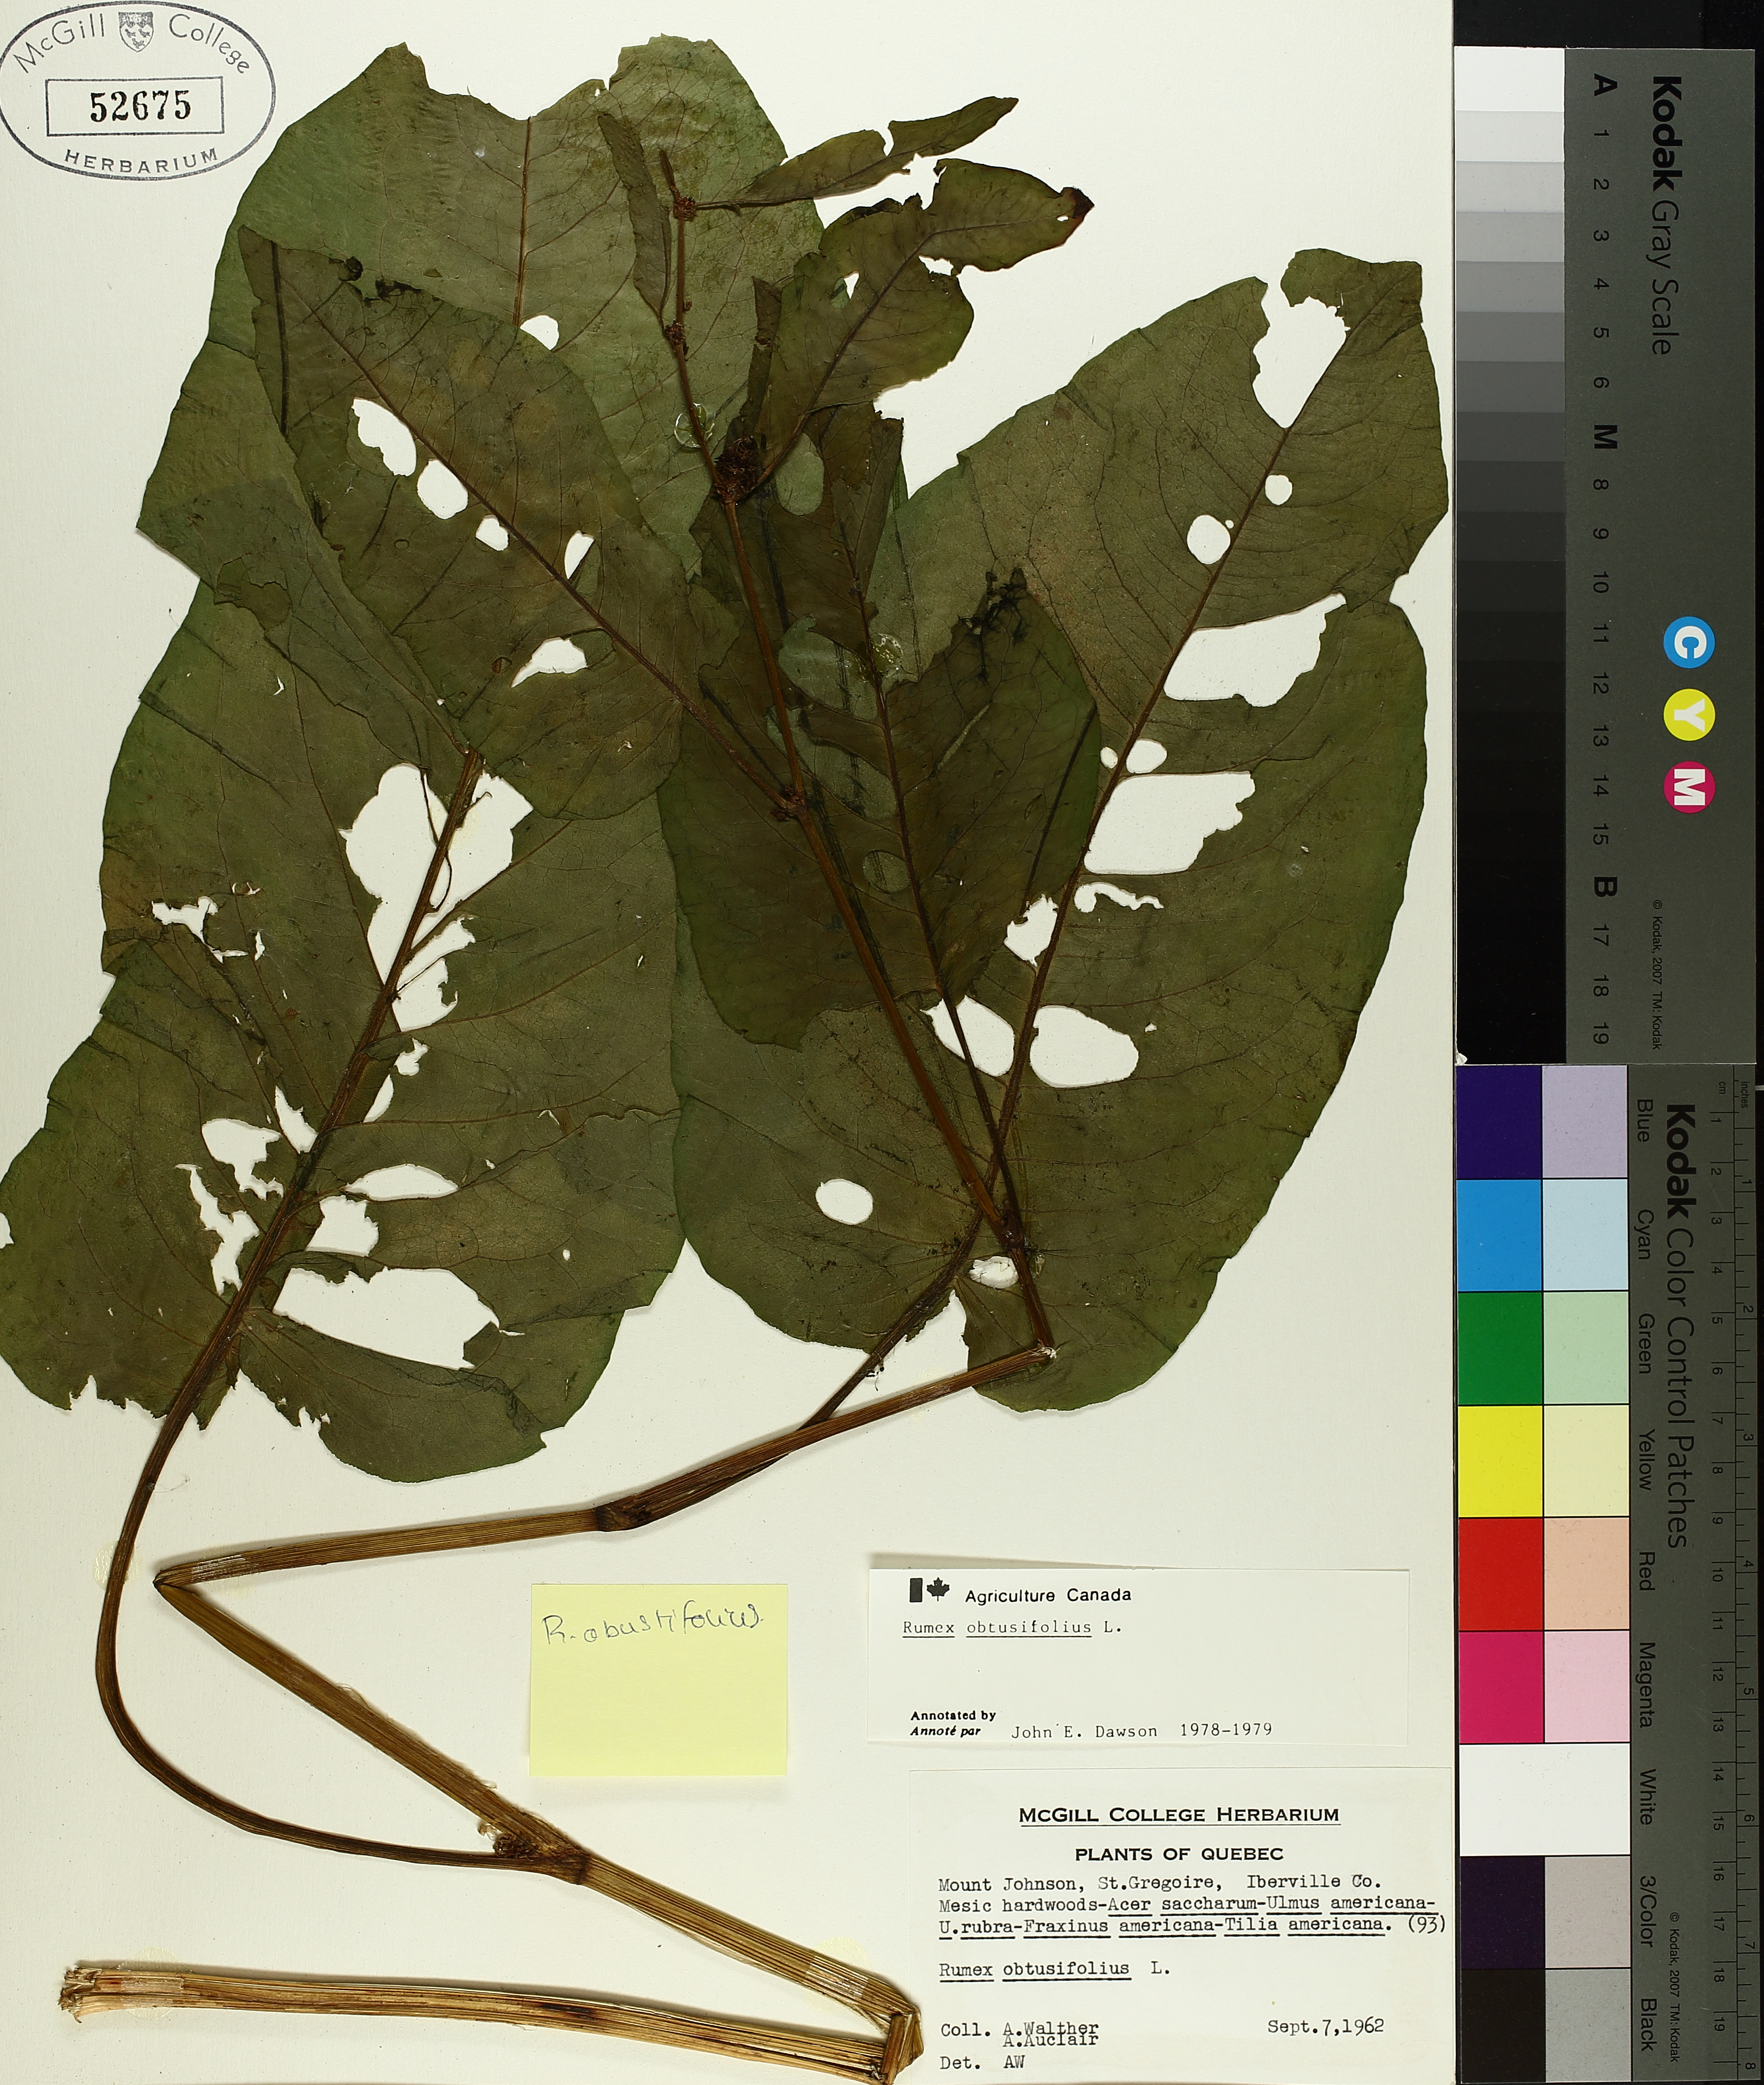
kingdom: Plantae
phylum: Tracheophyta
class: Magnoliopsida
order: Caryophyllales
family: Polygonaceae
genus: Rumex
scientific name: Rumex obtusifolius
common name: Bitter dock
